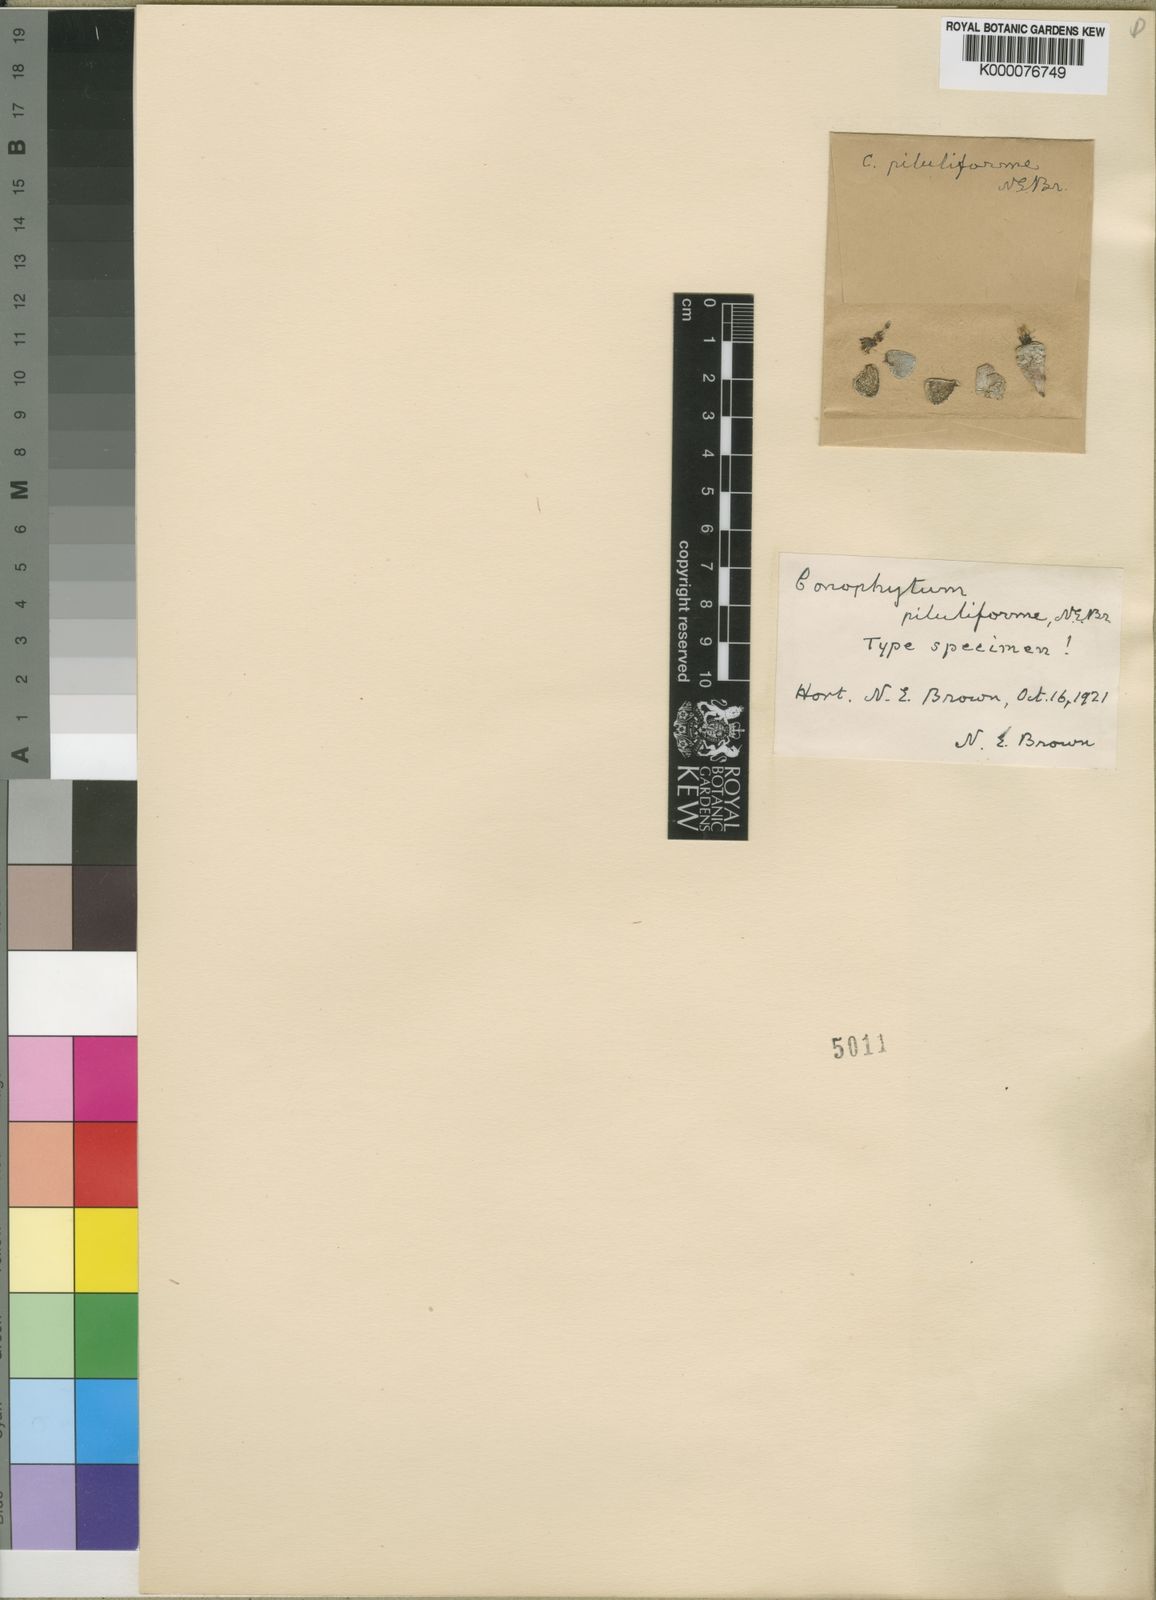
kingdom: Plantae
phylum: Tracheophyta
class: Magnoliopsida
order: Caryophyllales
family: Aizoaceae
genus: Conophytum
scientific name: Conophytum piluliforme
